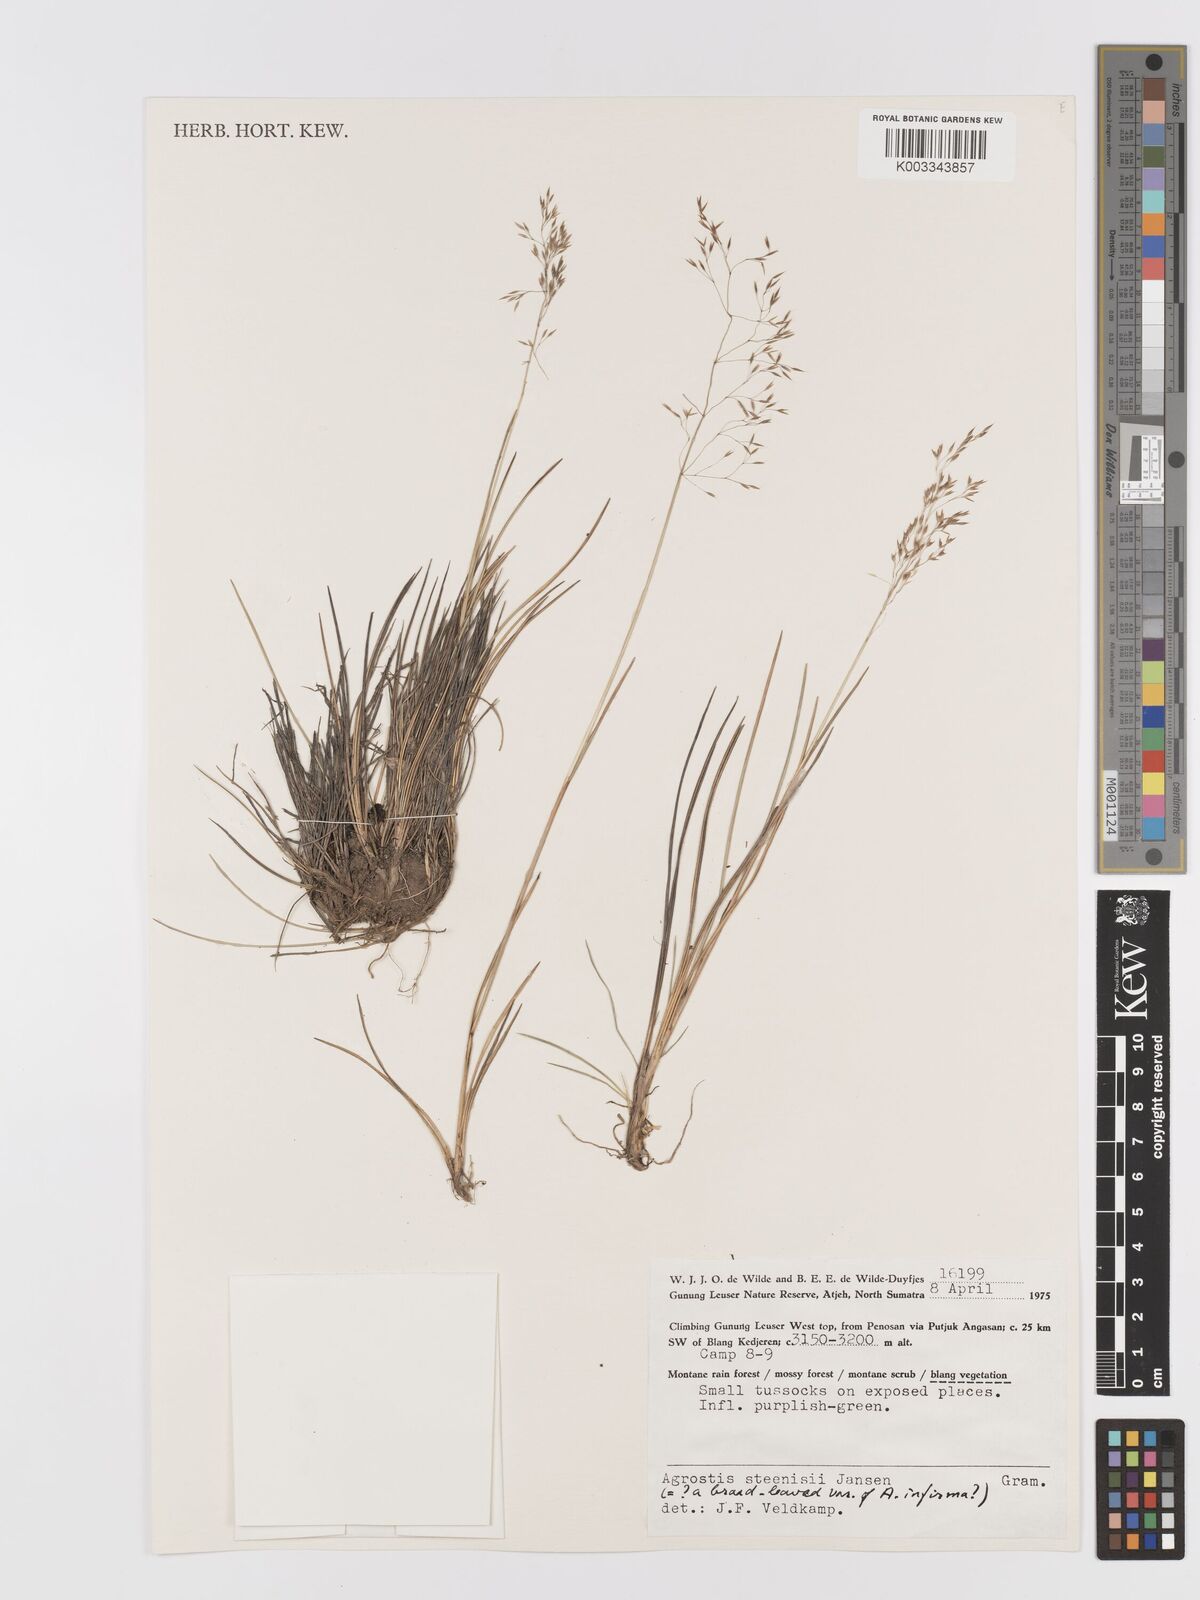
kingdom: Plantae
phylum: Tracheophyta
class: Liliopsida
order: Poales
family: Poaceae
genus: Agrostis
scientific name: Agrostis infirma
